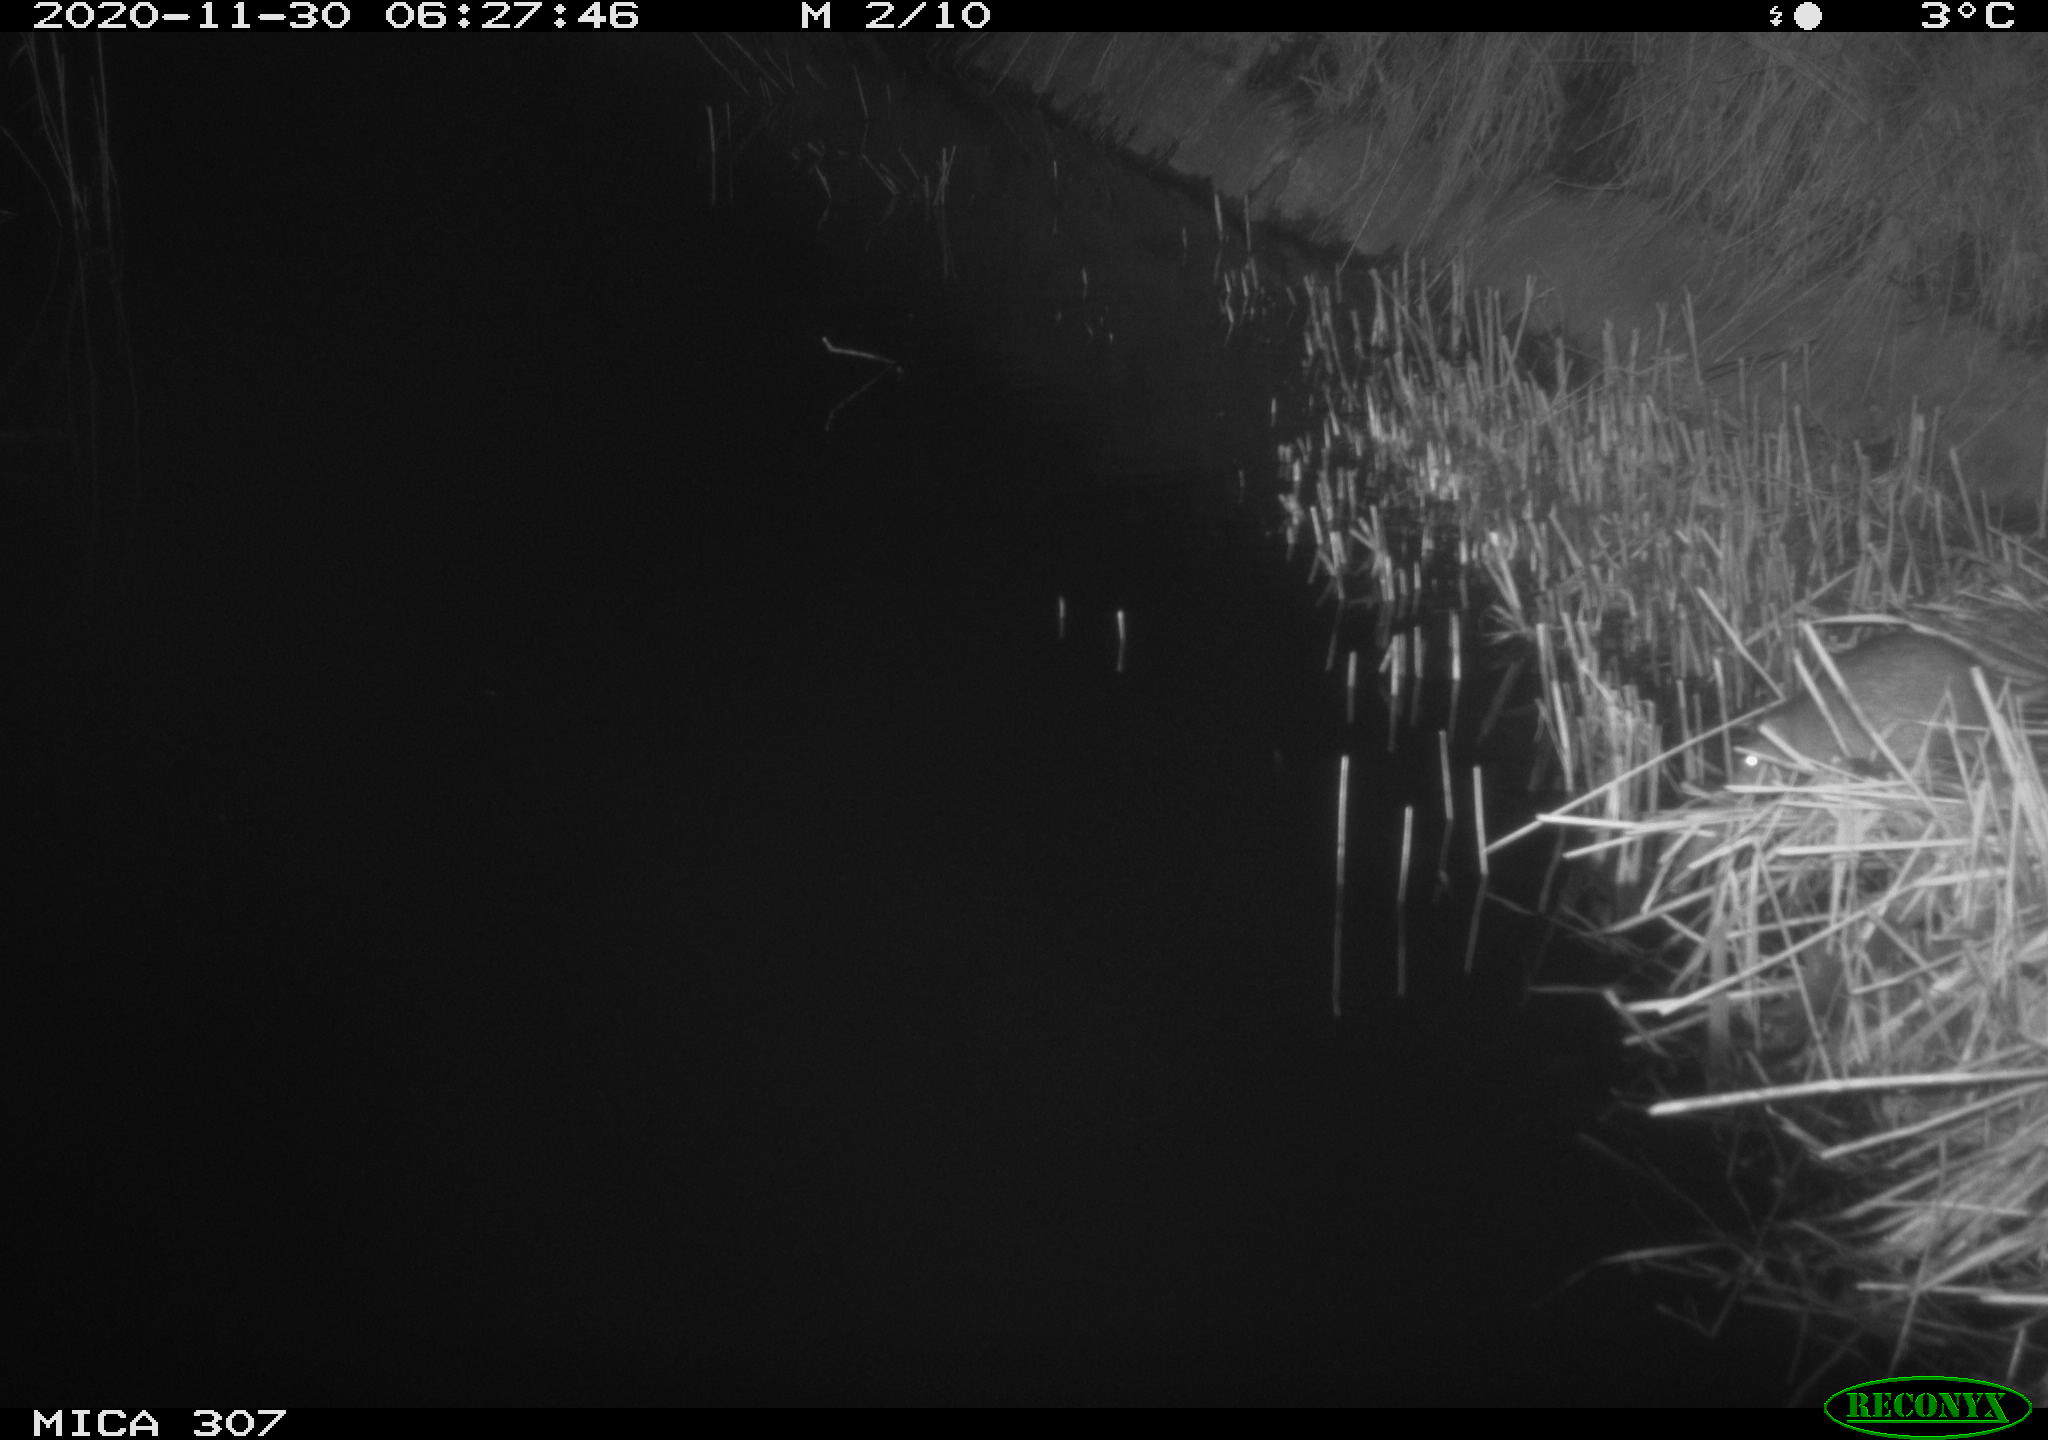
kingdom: Animalia
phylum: Chordata
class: Mammalia
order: Rodentia
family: Muridae
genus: Rattus
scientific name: Rattus norvegicus
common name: Brown rat
